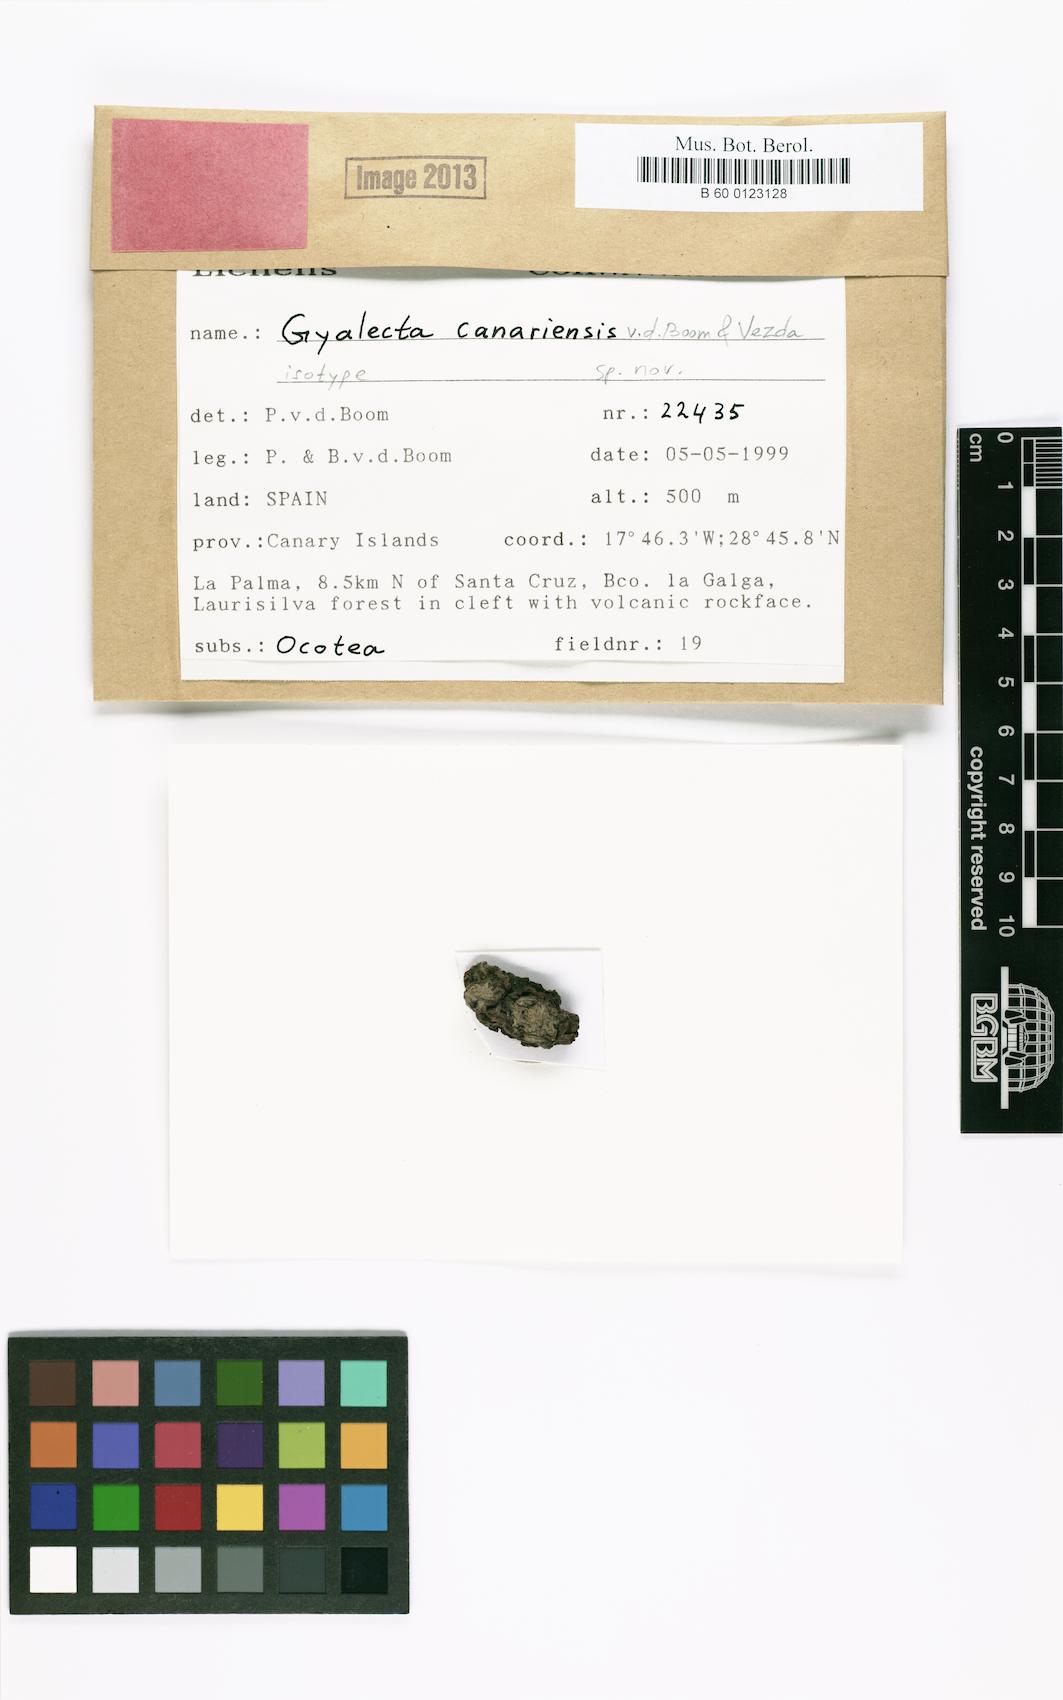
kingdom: Fungi
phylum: Ascomycota
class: Lecanoromycetes
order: Gyalectales
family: Gyalectaceae
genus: Cryptolechia
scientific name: Cryptolechia carneolutea
